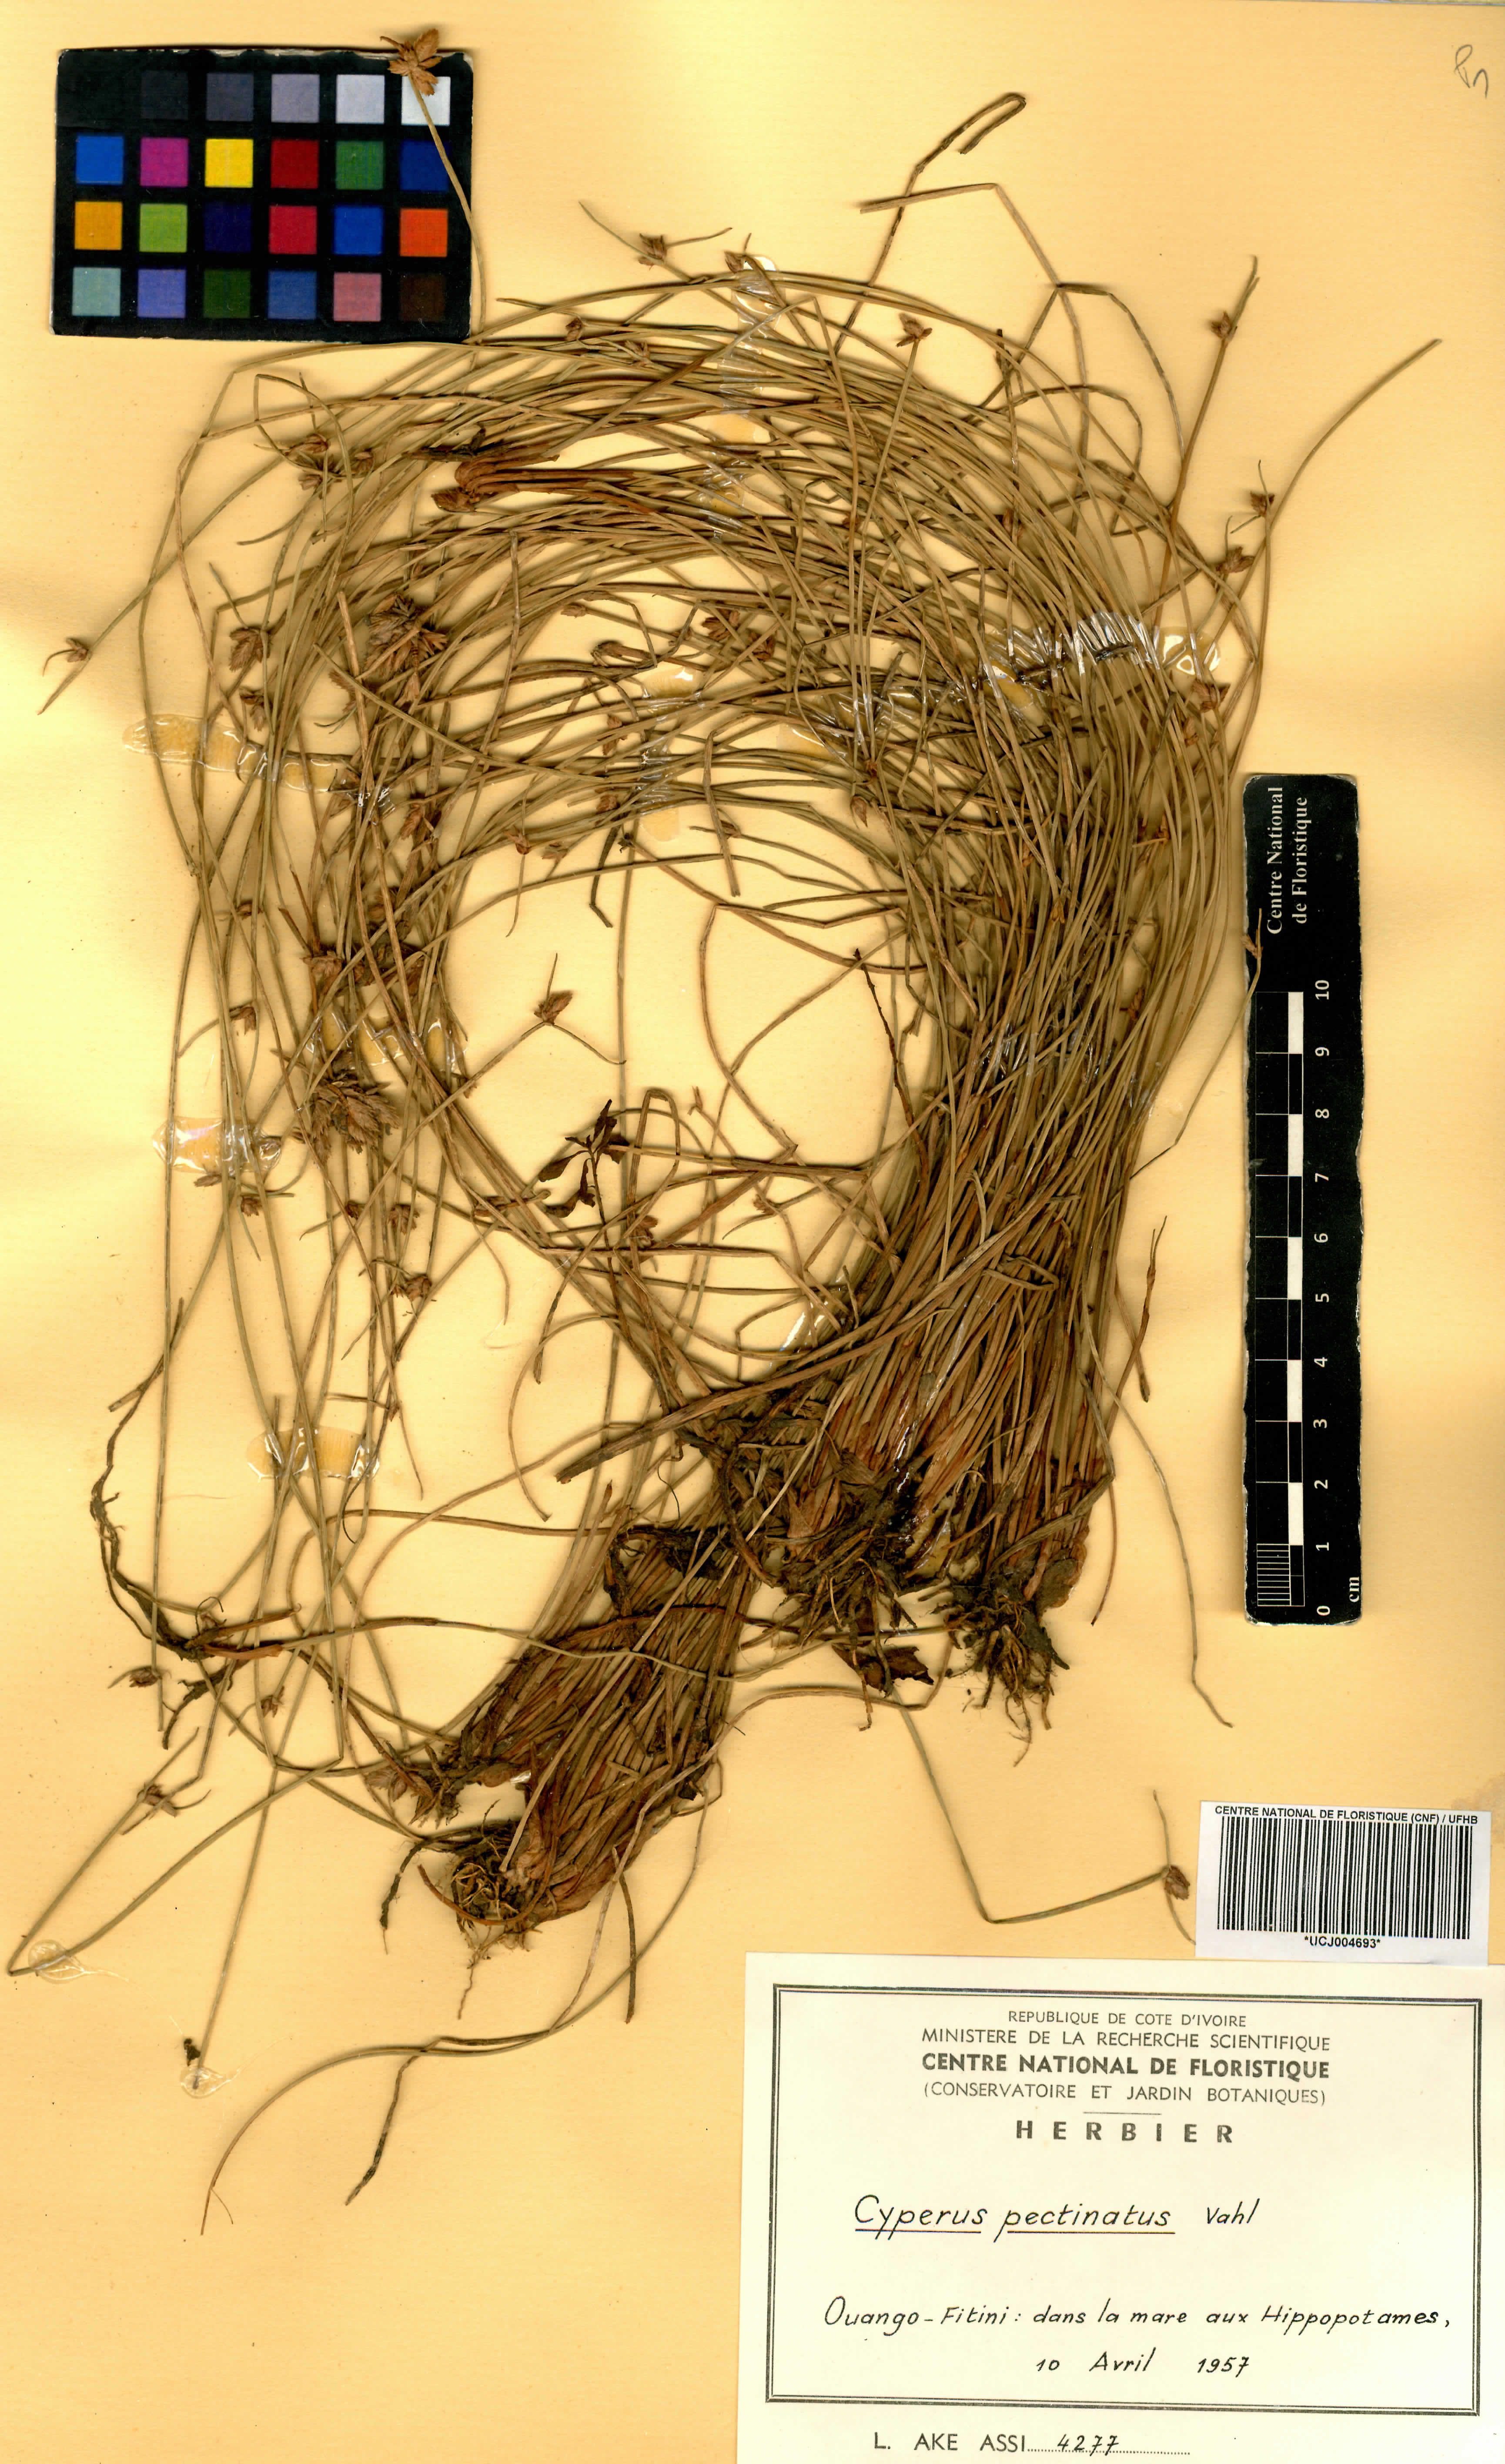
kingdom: Plantae
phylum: Tracheophyta
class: Liliopsida
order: Poales
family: Cyperaceae
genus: Cyperus
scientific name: Cyperus pectinatus
